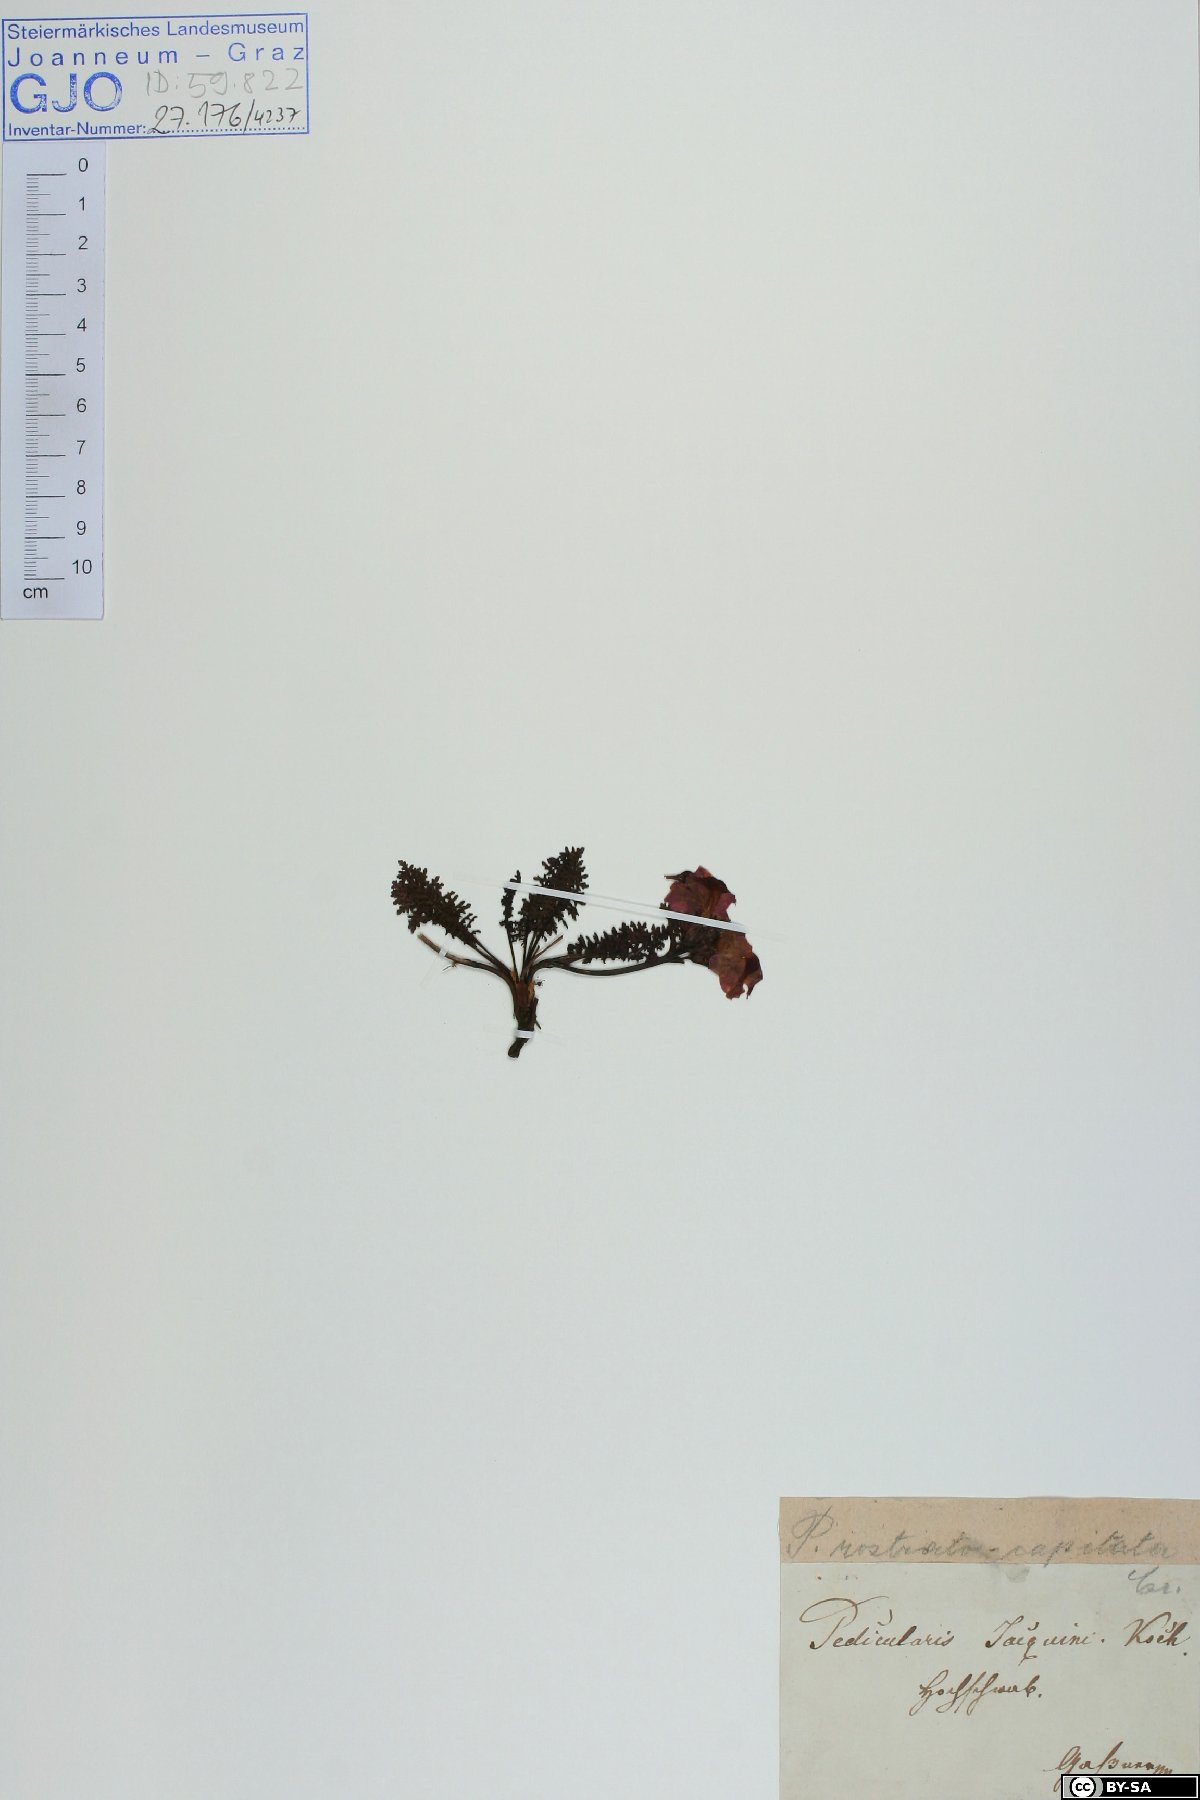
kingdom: Plantae
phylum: Tracheophyta
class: Magnoliopsida
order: Lamiales
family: Orobanchaceae
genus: Pedicularis
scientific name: Pedicularis rostratocapitata
